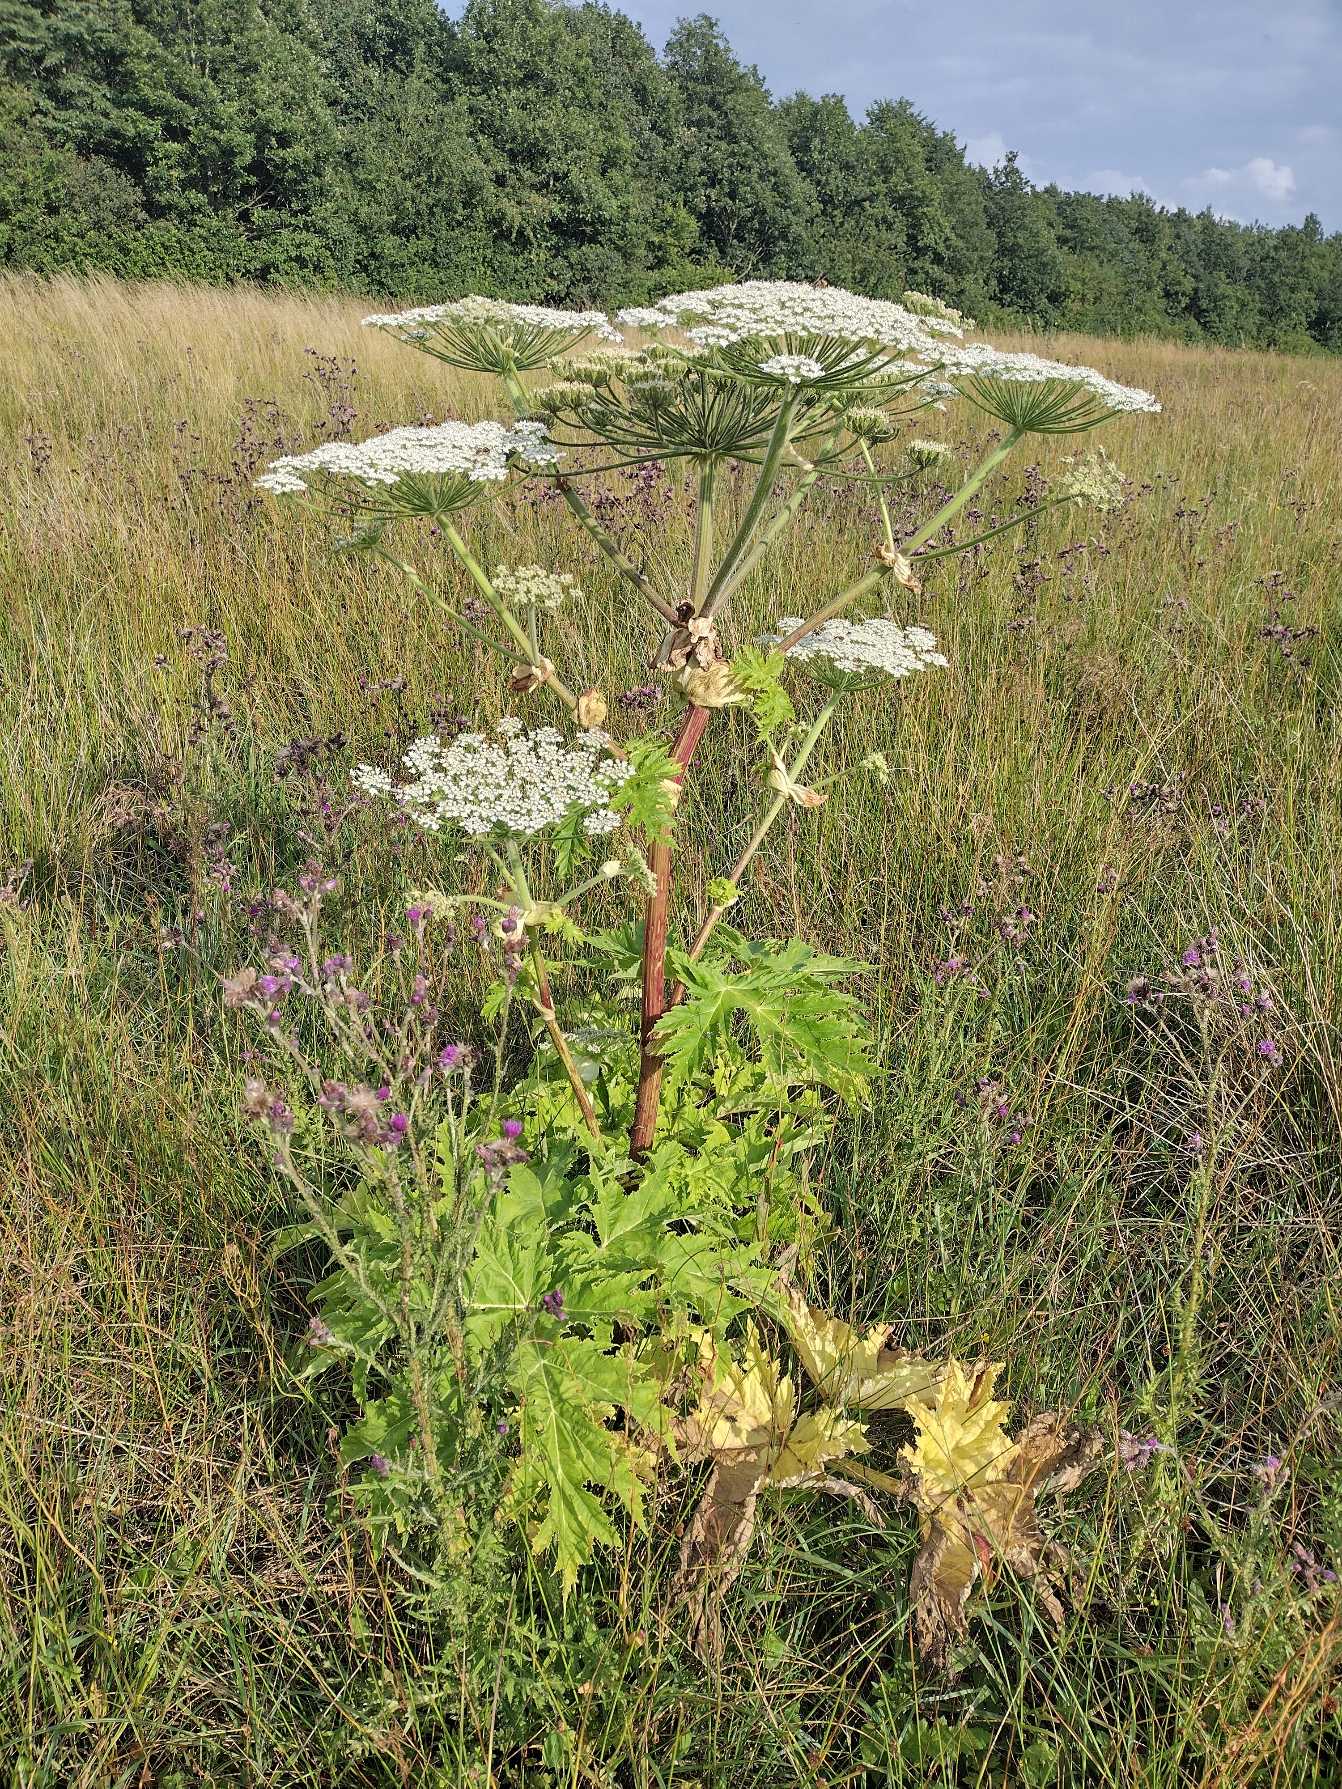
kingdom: Plantae
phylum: Tracheophyta
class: Magnoliopsida
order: Apiales
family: Apiaceae
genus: Heracleum
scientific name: Heracleum mantegazzianum
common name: Kæmpe-bjørneklo
